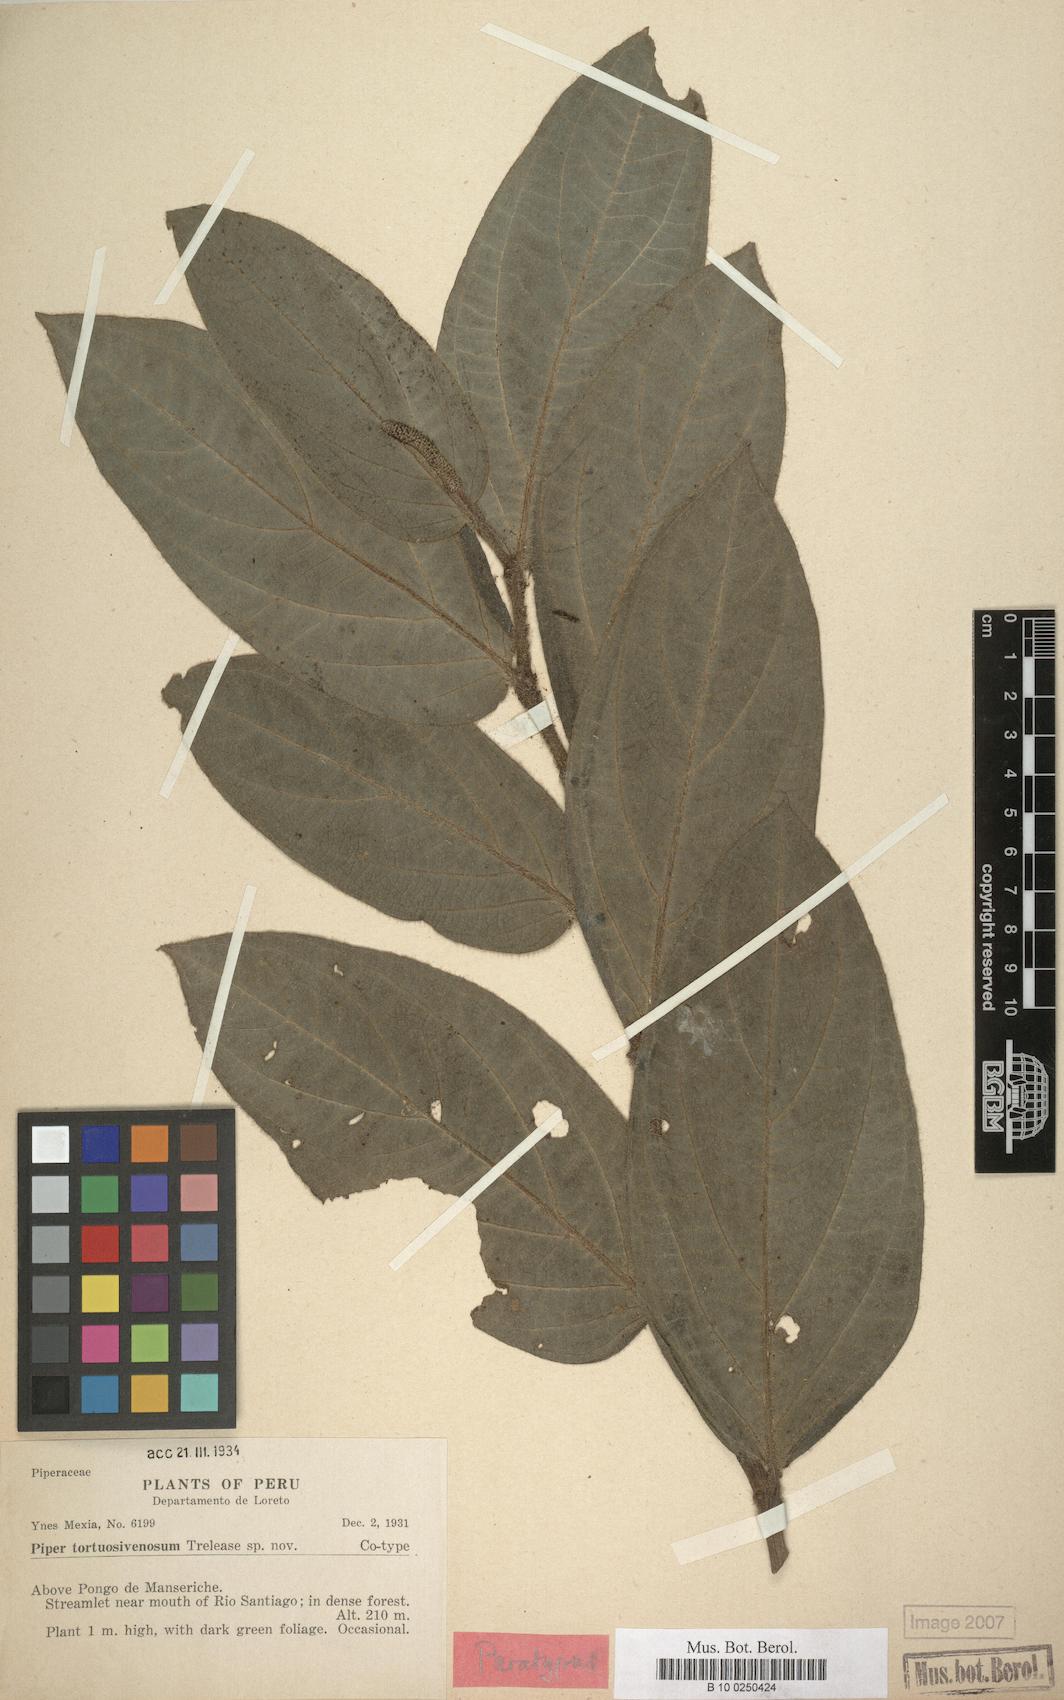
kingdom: Plantae
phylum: Tracheophyta
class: Magnoliopsida
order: Piperales
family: Piperaceae
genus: Piper
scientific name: Piper tortuosivenosum
